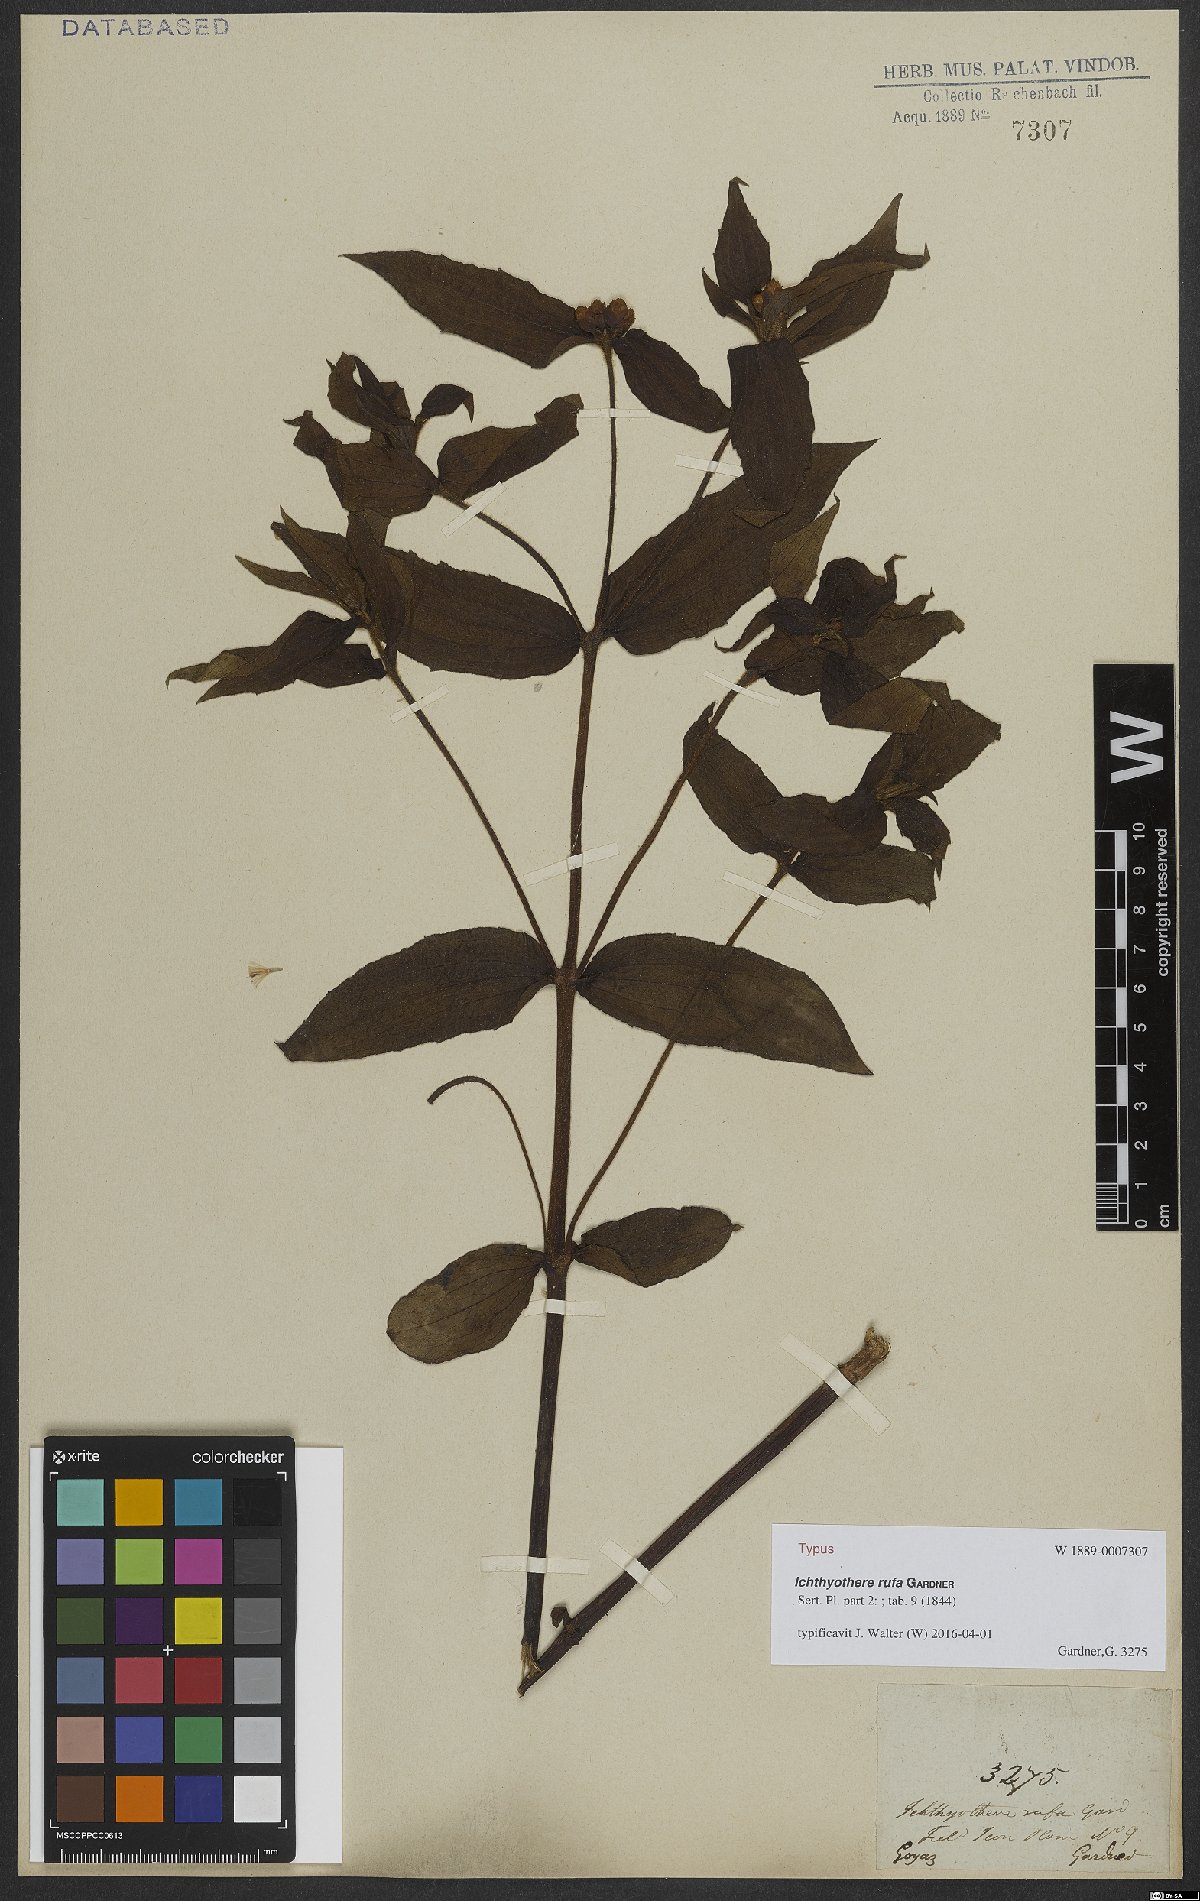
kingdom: Plantae
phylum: Tracheophyta
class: Magnoliopsida
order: Asterales
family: Asteraceae
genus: Ichthyothere
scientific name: Ichthyothere rufa
